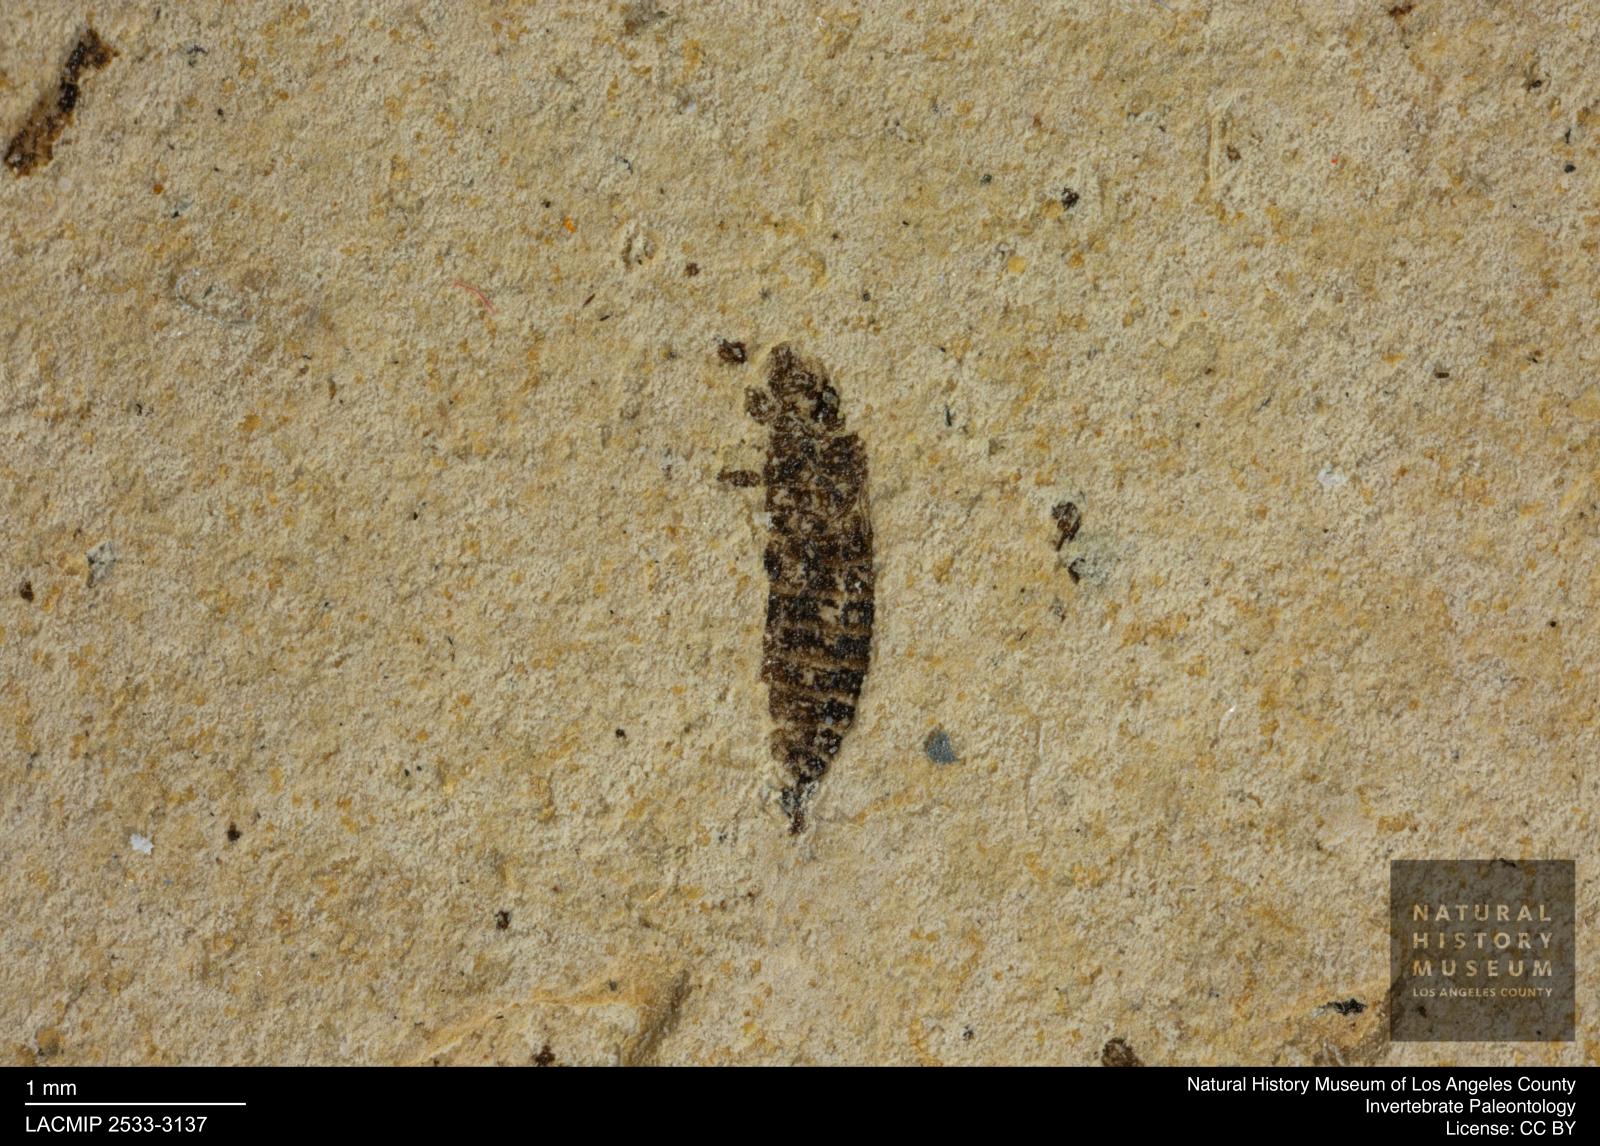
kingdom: Animalia
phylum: Arthropoda
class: Insecta
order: Thysanoptera
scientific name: Thysanoptera
